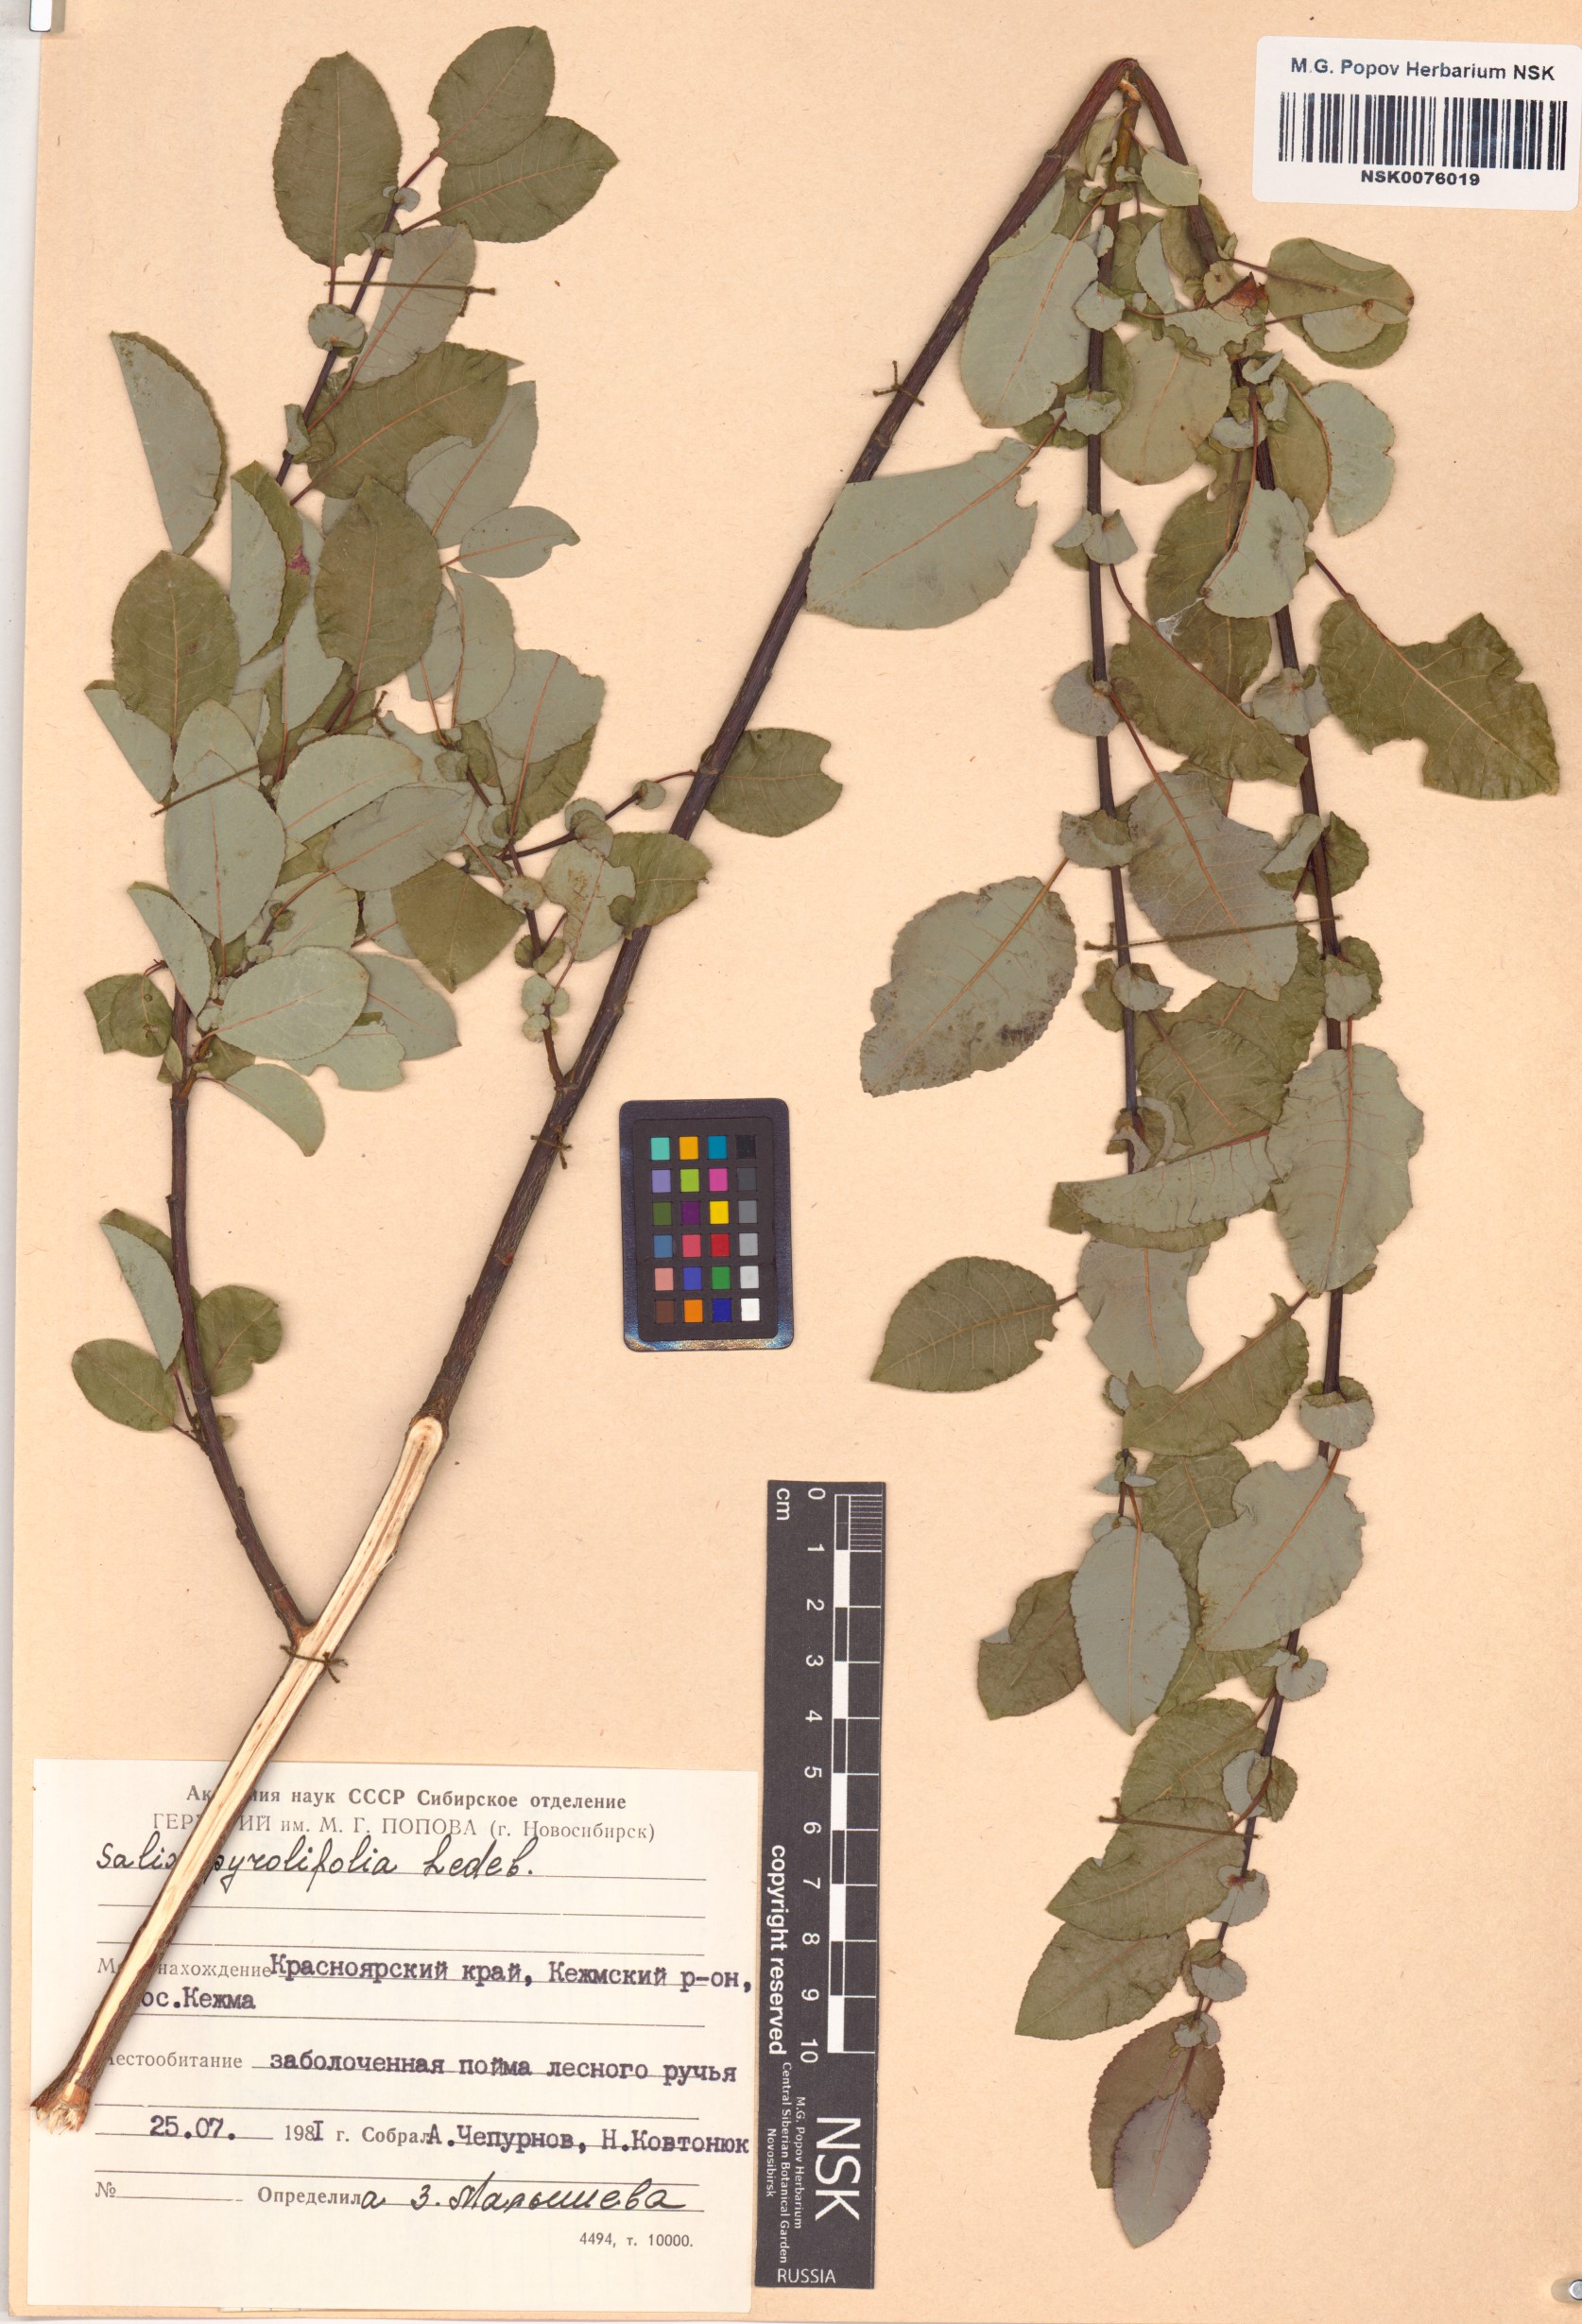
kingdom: Plantae
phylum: Tracheophyta
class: Magnoliopsida
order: Malpighiales
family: Salicaceae
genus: Salix
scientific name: Salix pyrolifolia
